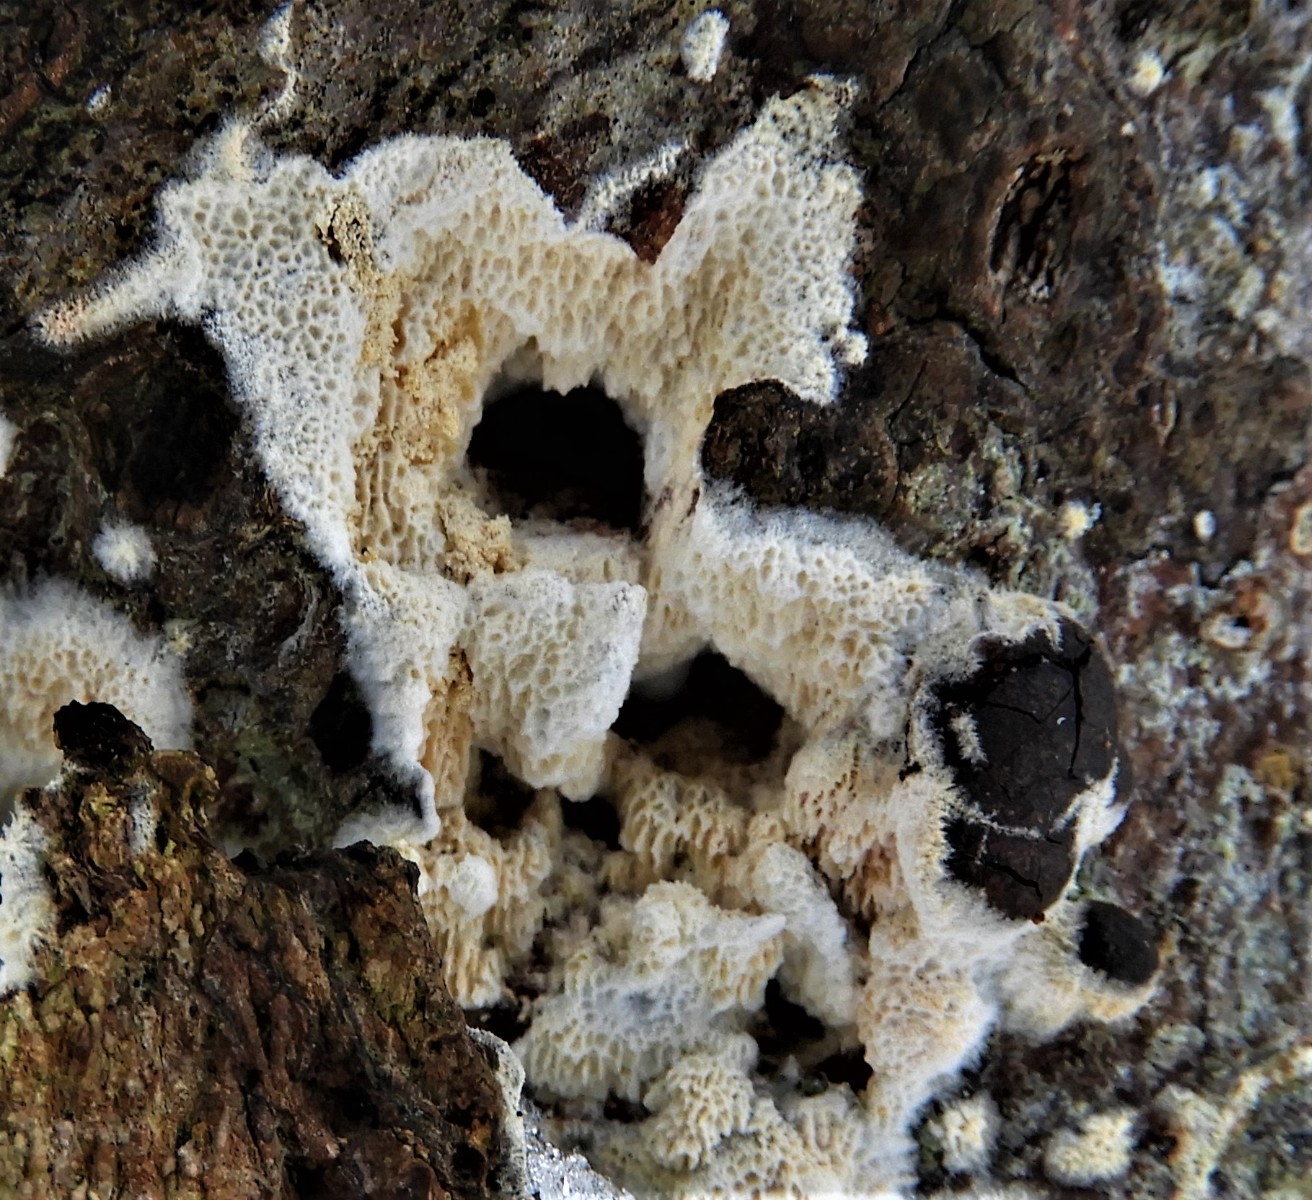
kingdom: Fungi
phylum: Basidiomycota
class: Agaricomycetes
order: Polyporales
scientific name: Polyporales
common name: poresvampordenen
